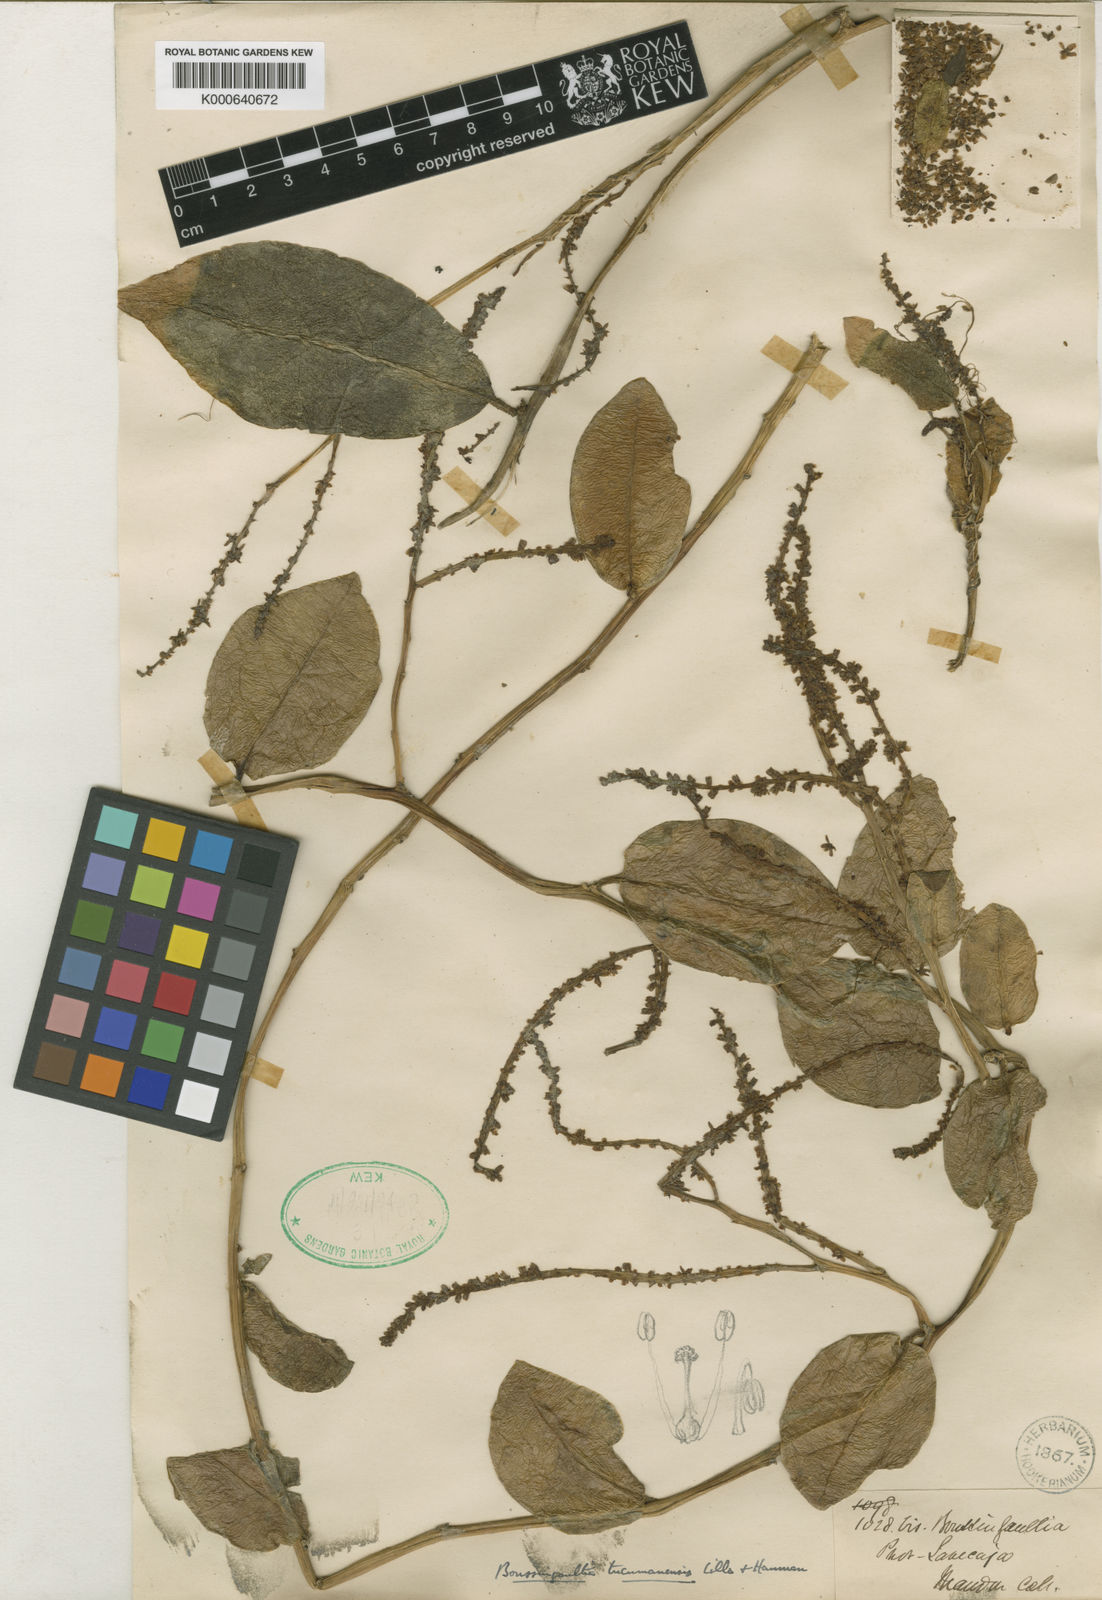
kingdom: Plantae
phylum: Tracheophyta
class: Magnoliopsida
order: Caryophyllales
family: Basellaceae
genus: Anredera
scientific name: Anredera tucumanensis
